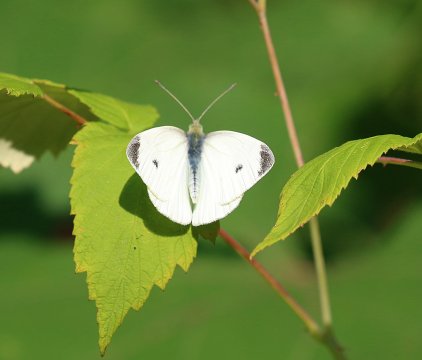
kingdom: Animalia
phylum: Arthropoda
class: Insecta
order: Lepidoptera
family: Pieridae
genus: Pieris
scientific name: Pieris rapae
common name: Cabbage White
